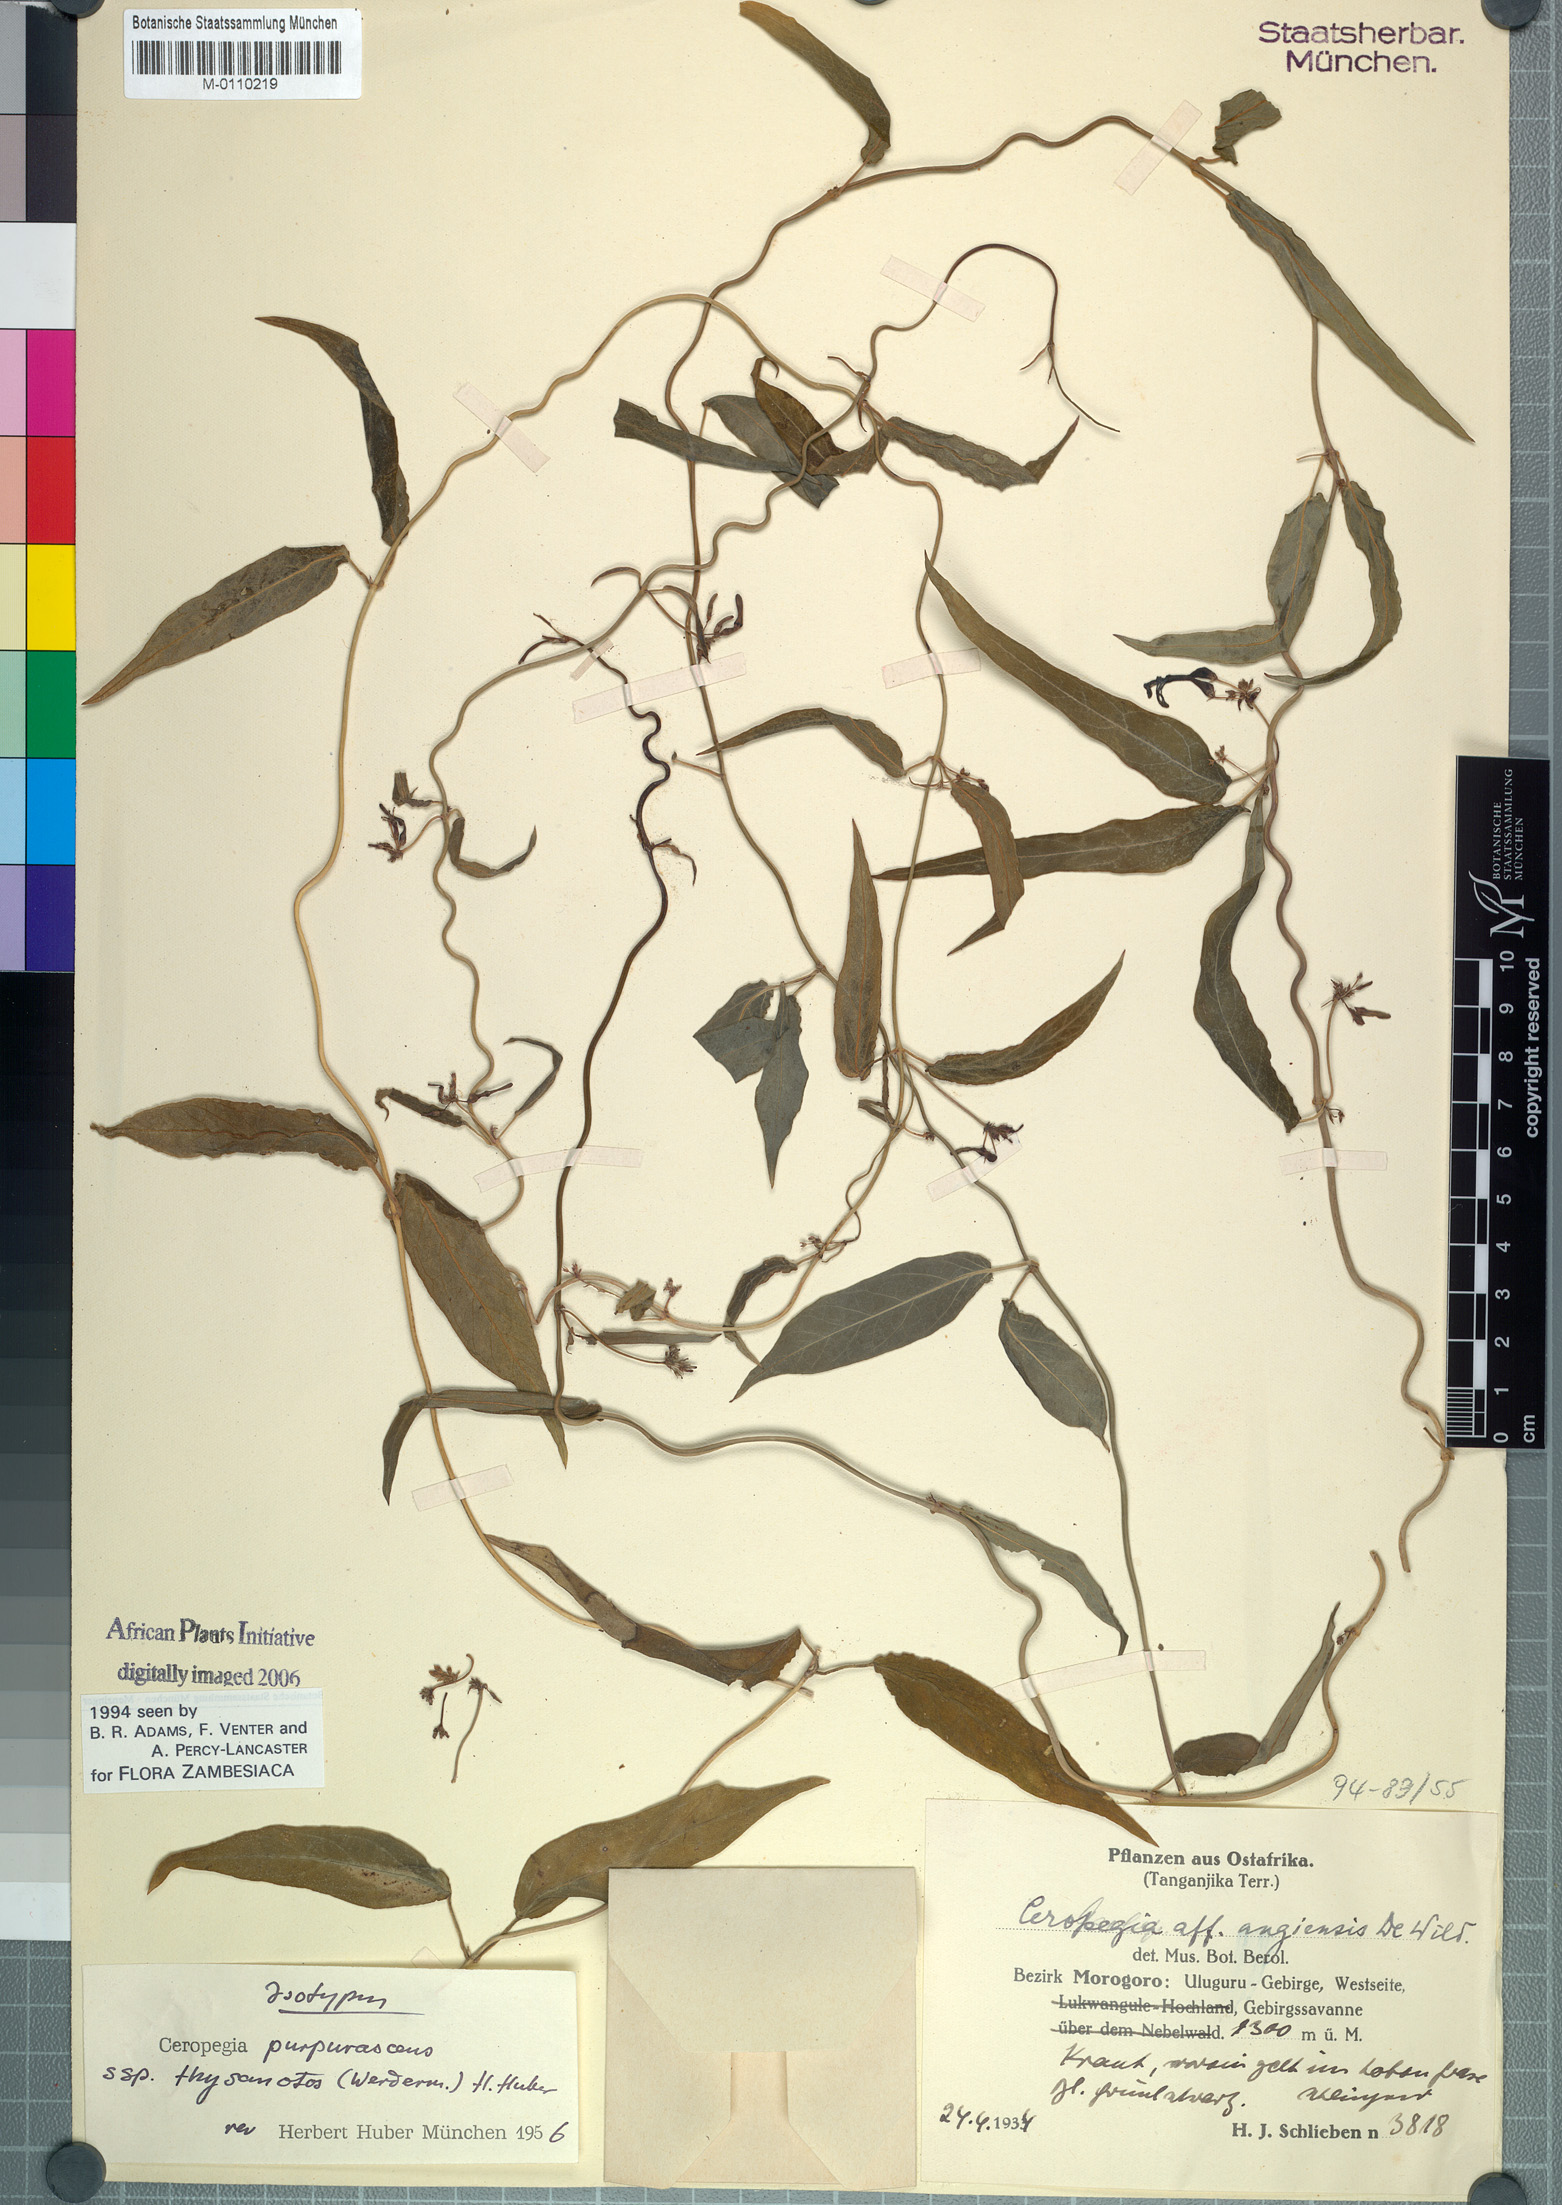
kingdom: Plantae
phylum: Tracheophyta
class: Magnoliopsida
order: Gentianales
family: Apocynaceae
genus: Ceropegia
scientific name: Ceropegia purpurascens
